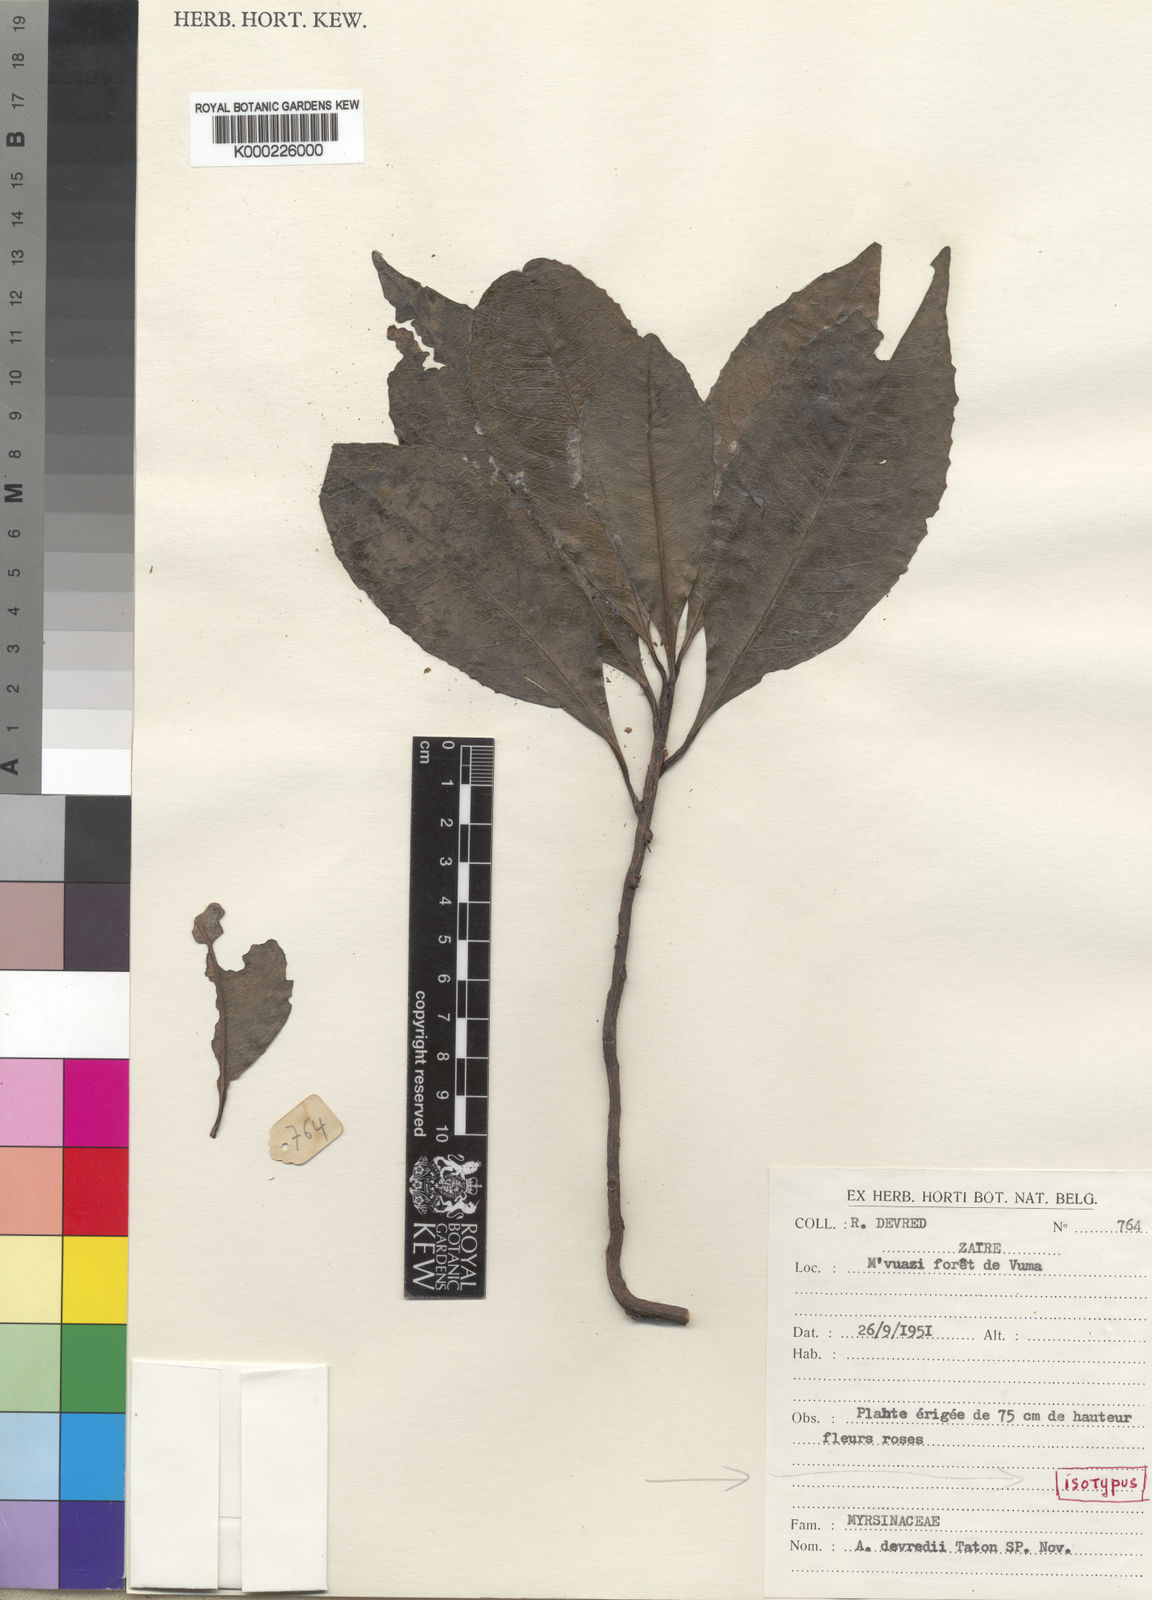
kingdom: Plantae
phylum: Tracheophyta
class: Magnoliopsida
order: Ericales
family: Primulaceae
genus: Ardisia
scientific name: Ardisia devredii
